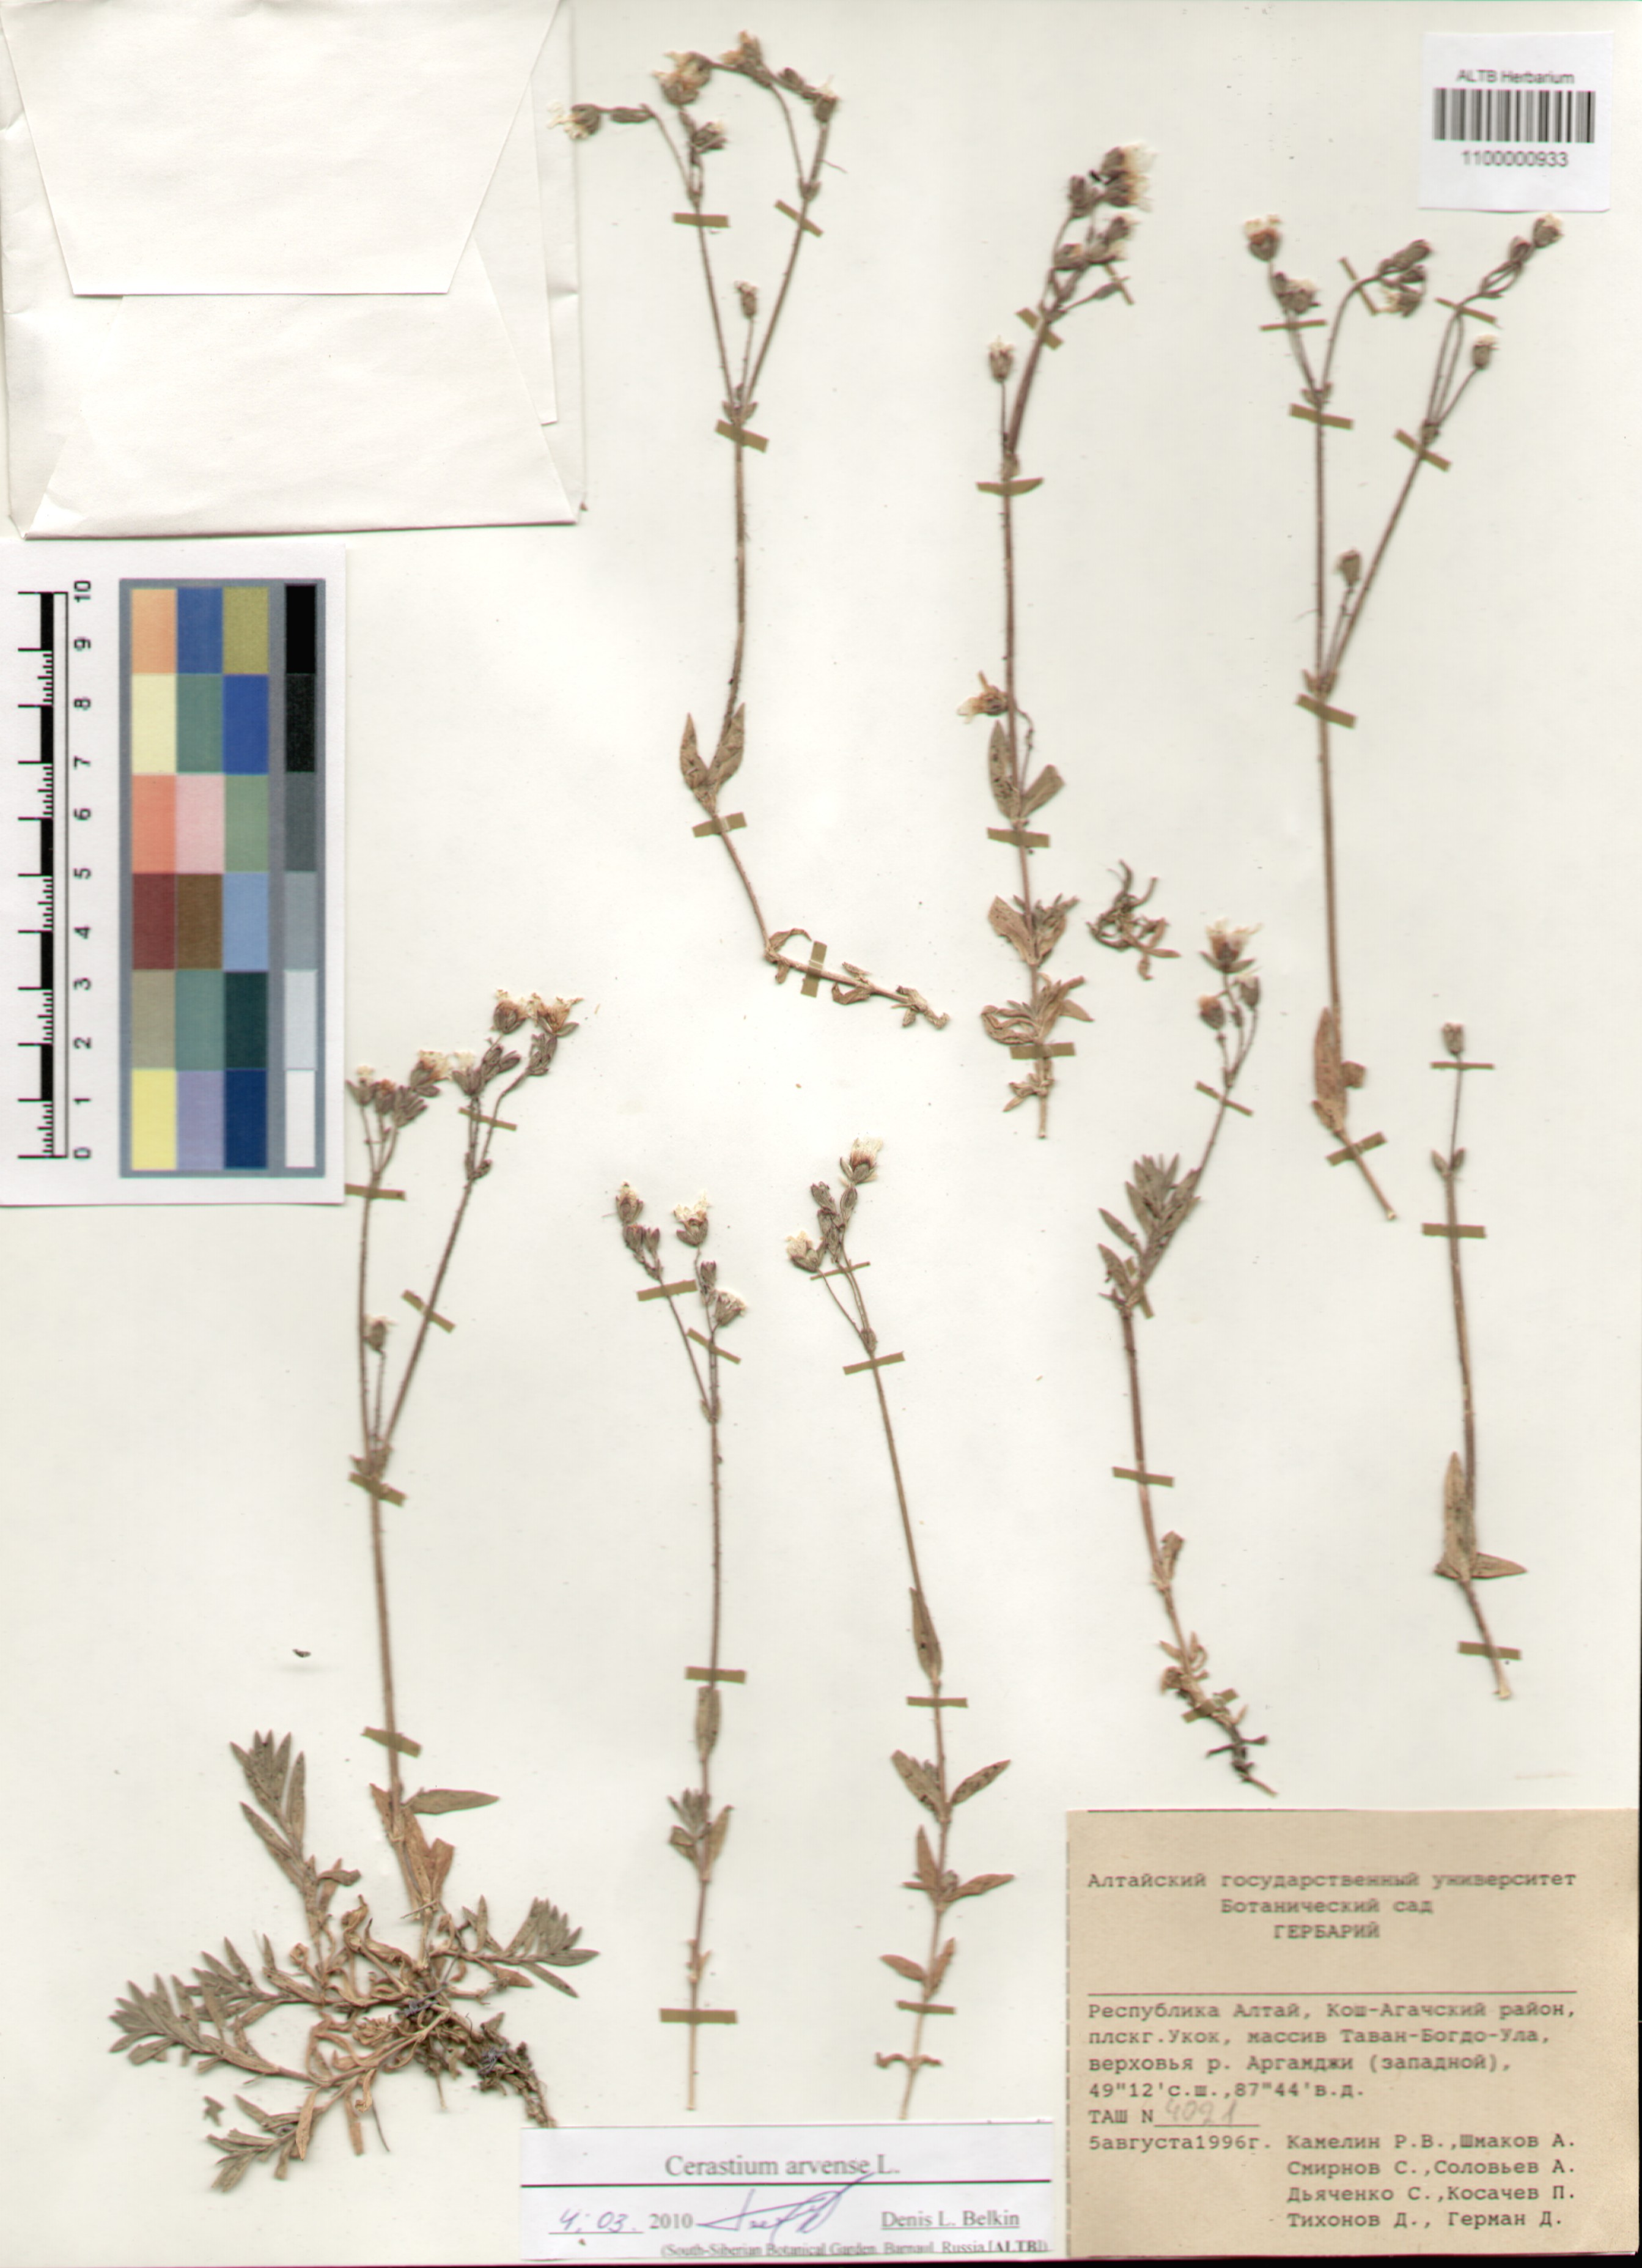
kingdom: Plantae
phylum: Tracheophyta
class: Magnoliopsida
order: Caryophyllales
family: Caryophyllaceae
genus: Cerastium
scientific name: Cerastium arvense
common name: Field mouse-ear
